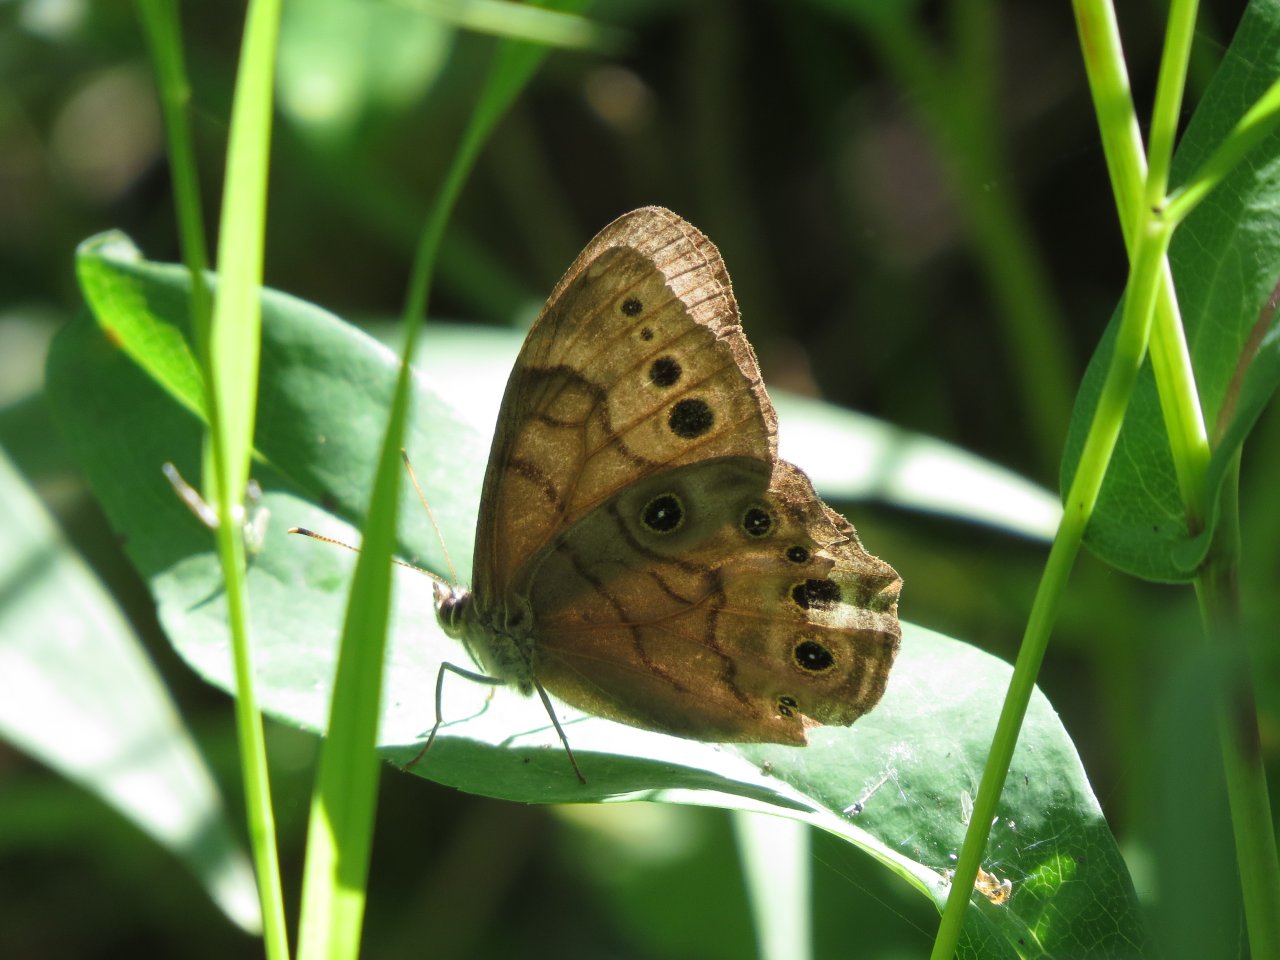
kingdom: Animalia
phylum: Arthropoda
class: Insecta
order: Lepidoptera
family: Nymphalidae
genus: Lethe
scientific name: Lethe anthedon
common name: Northern Pearly-Eye
